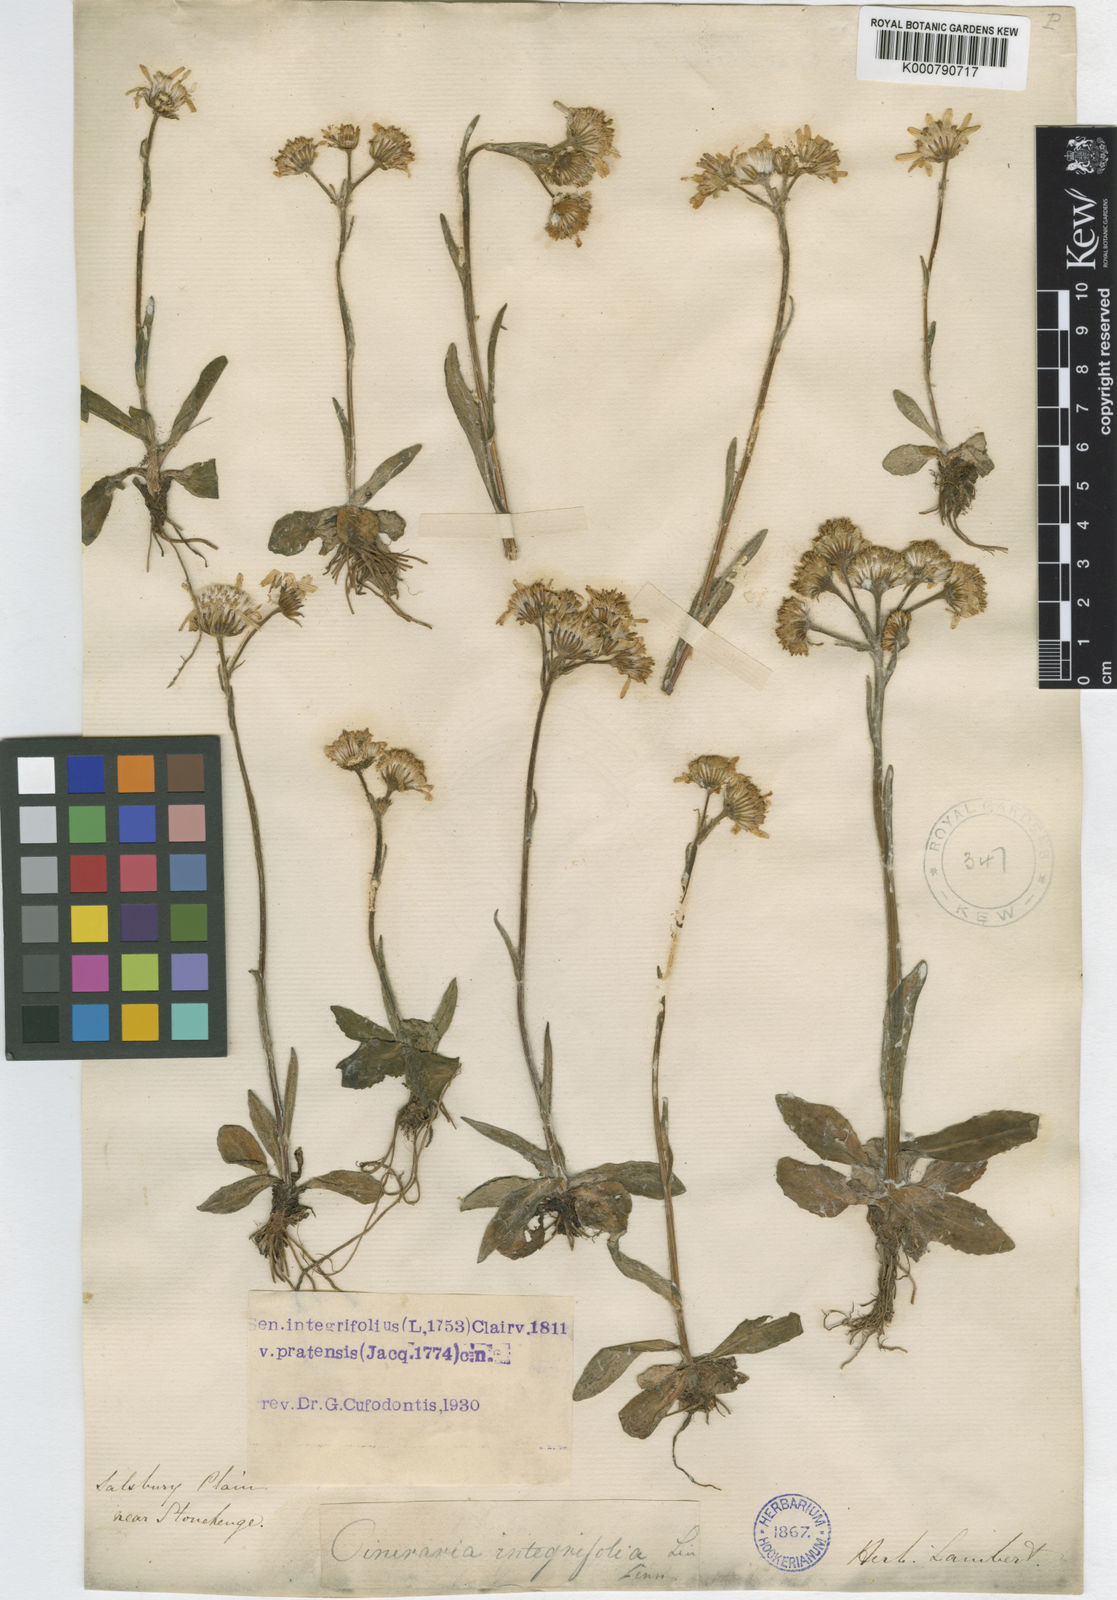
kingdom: Plantae
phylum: Tracheophyta
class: Magnoliopsida
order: Asterales
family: Asteraceae
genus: Tephroseris
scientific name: Tephroseris integrifolia
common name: Field fleawort
